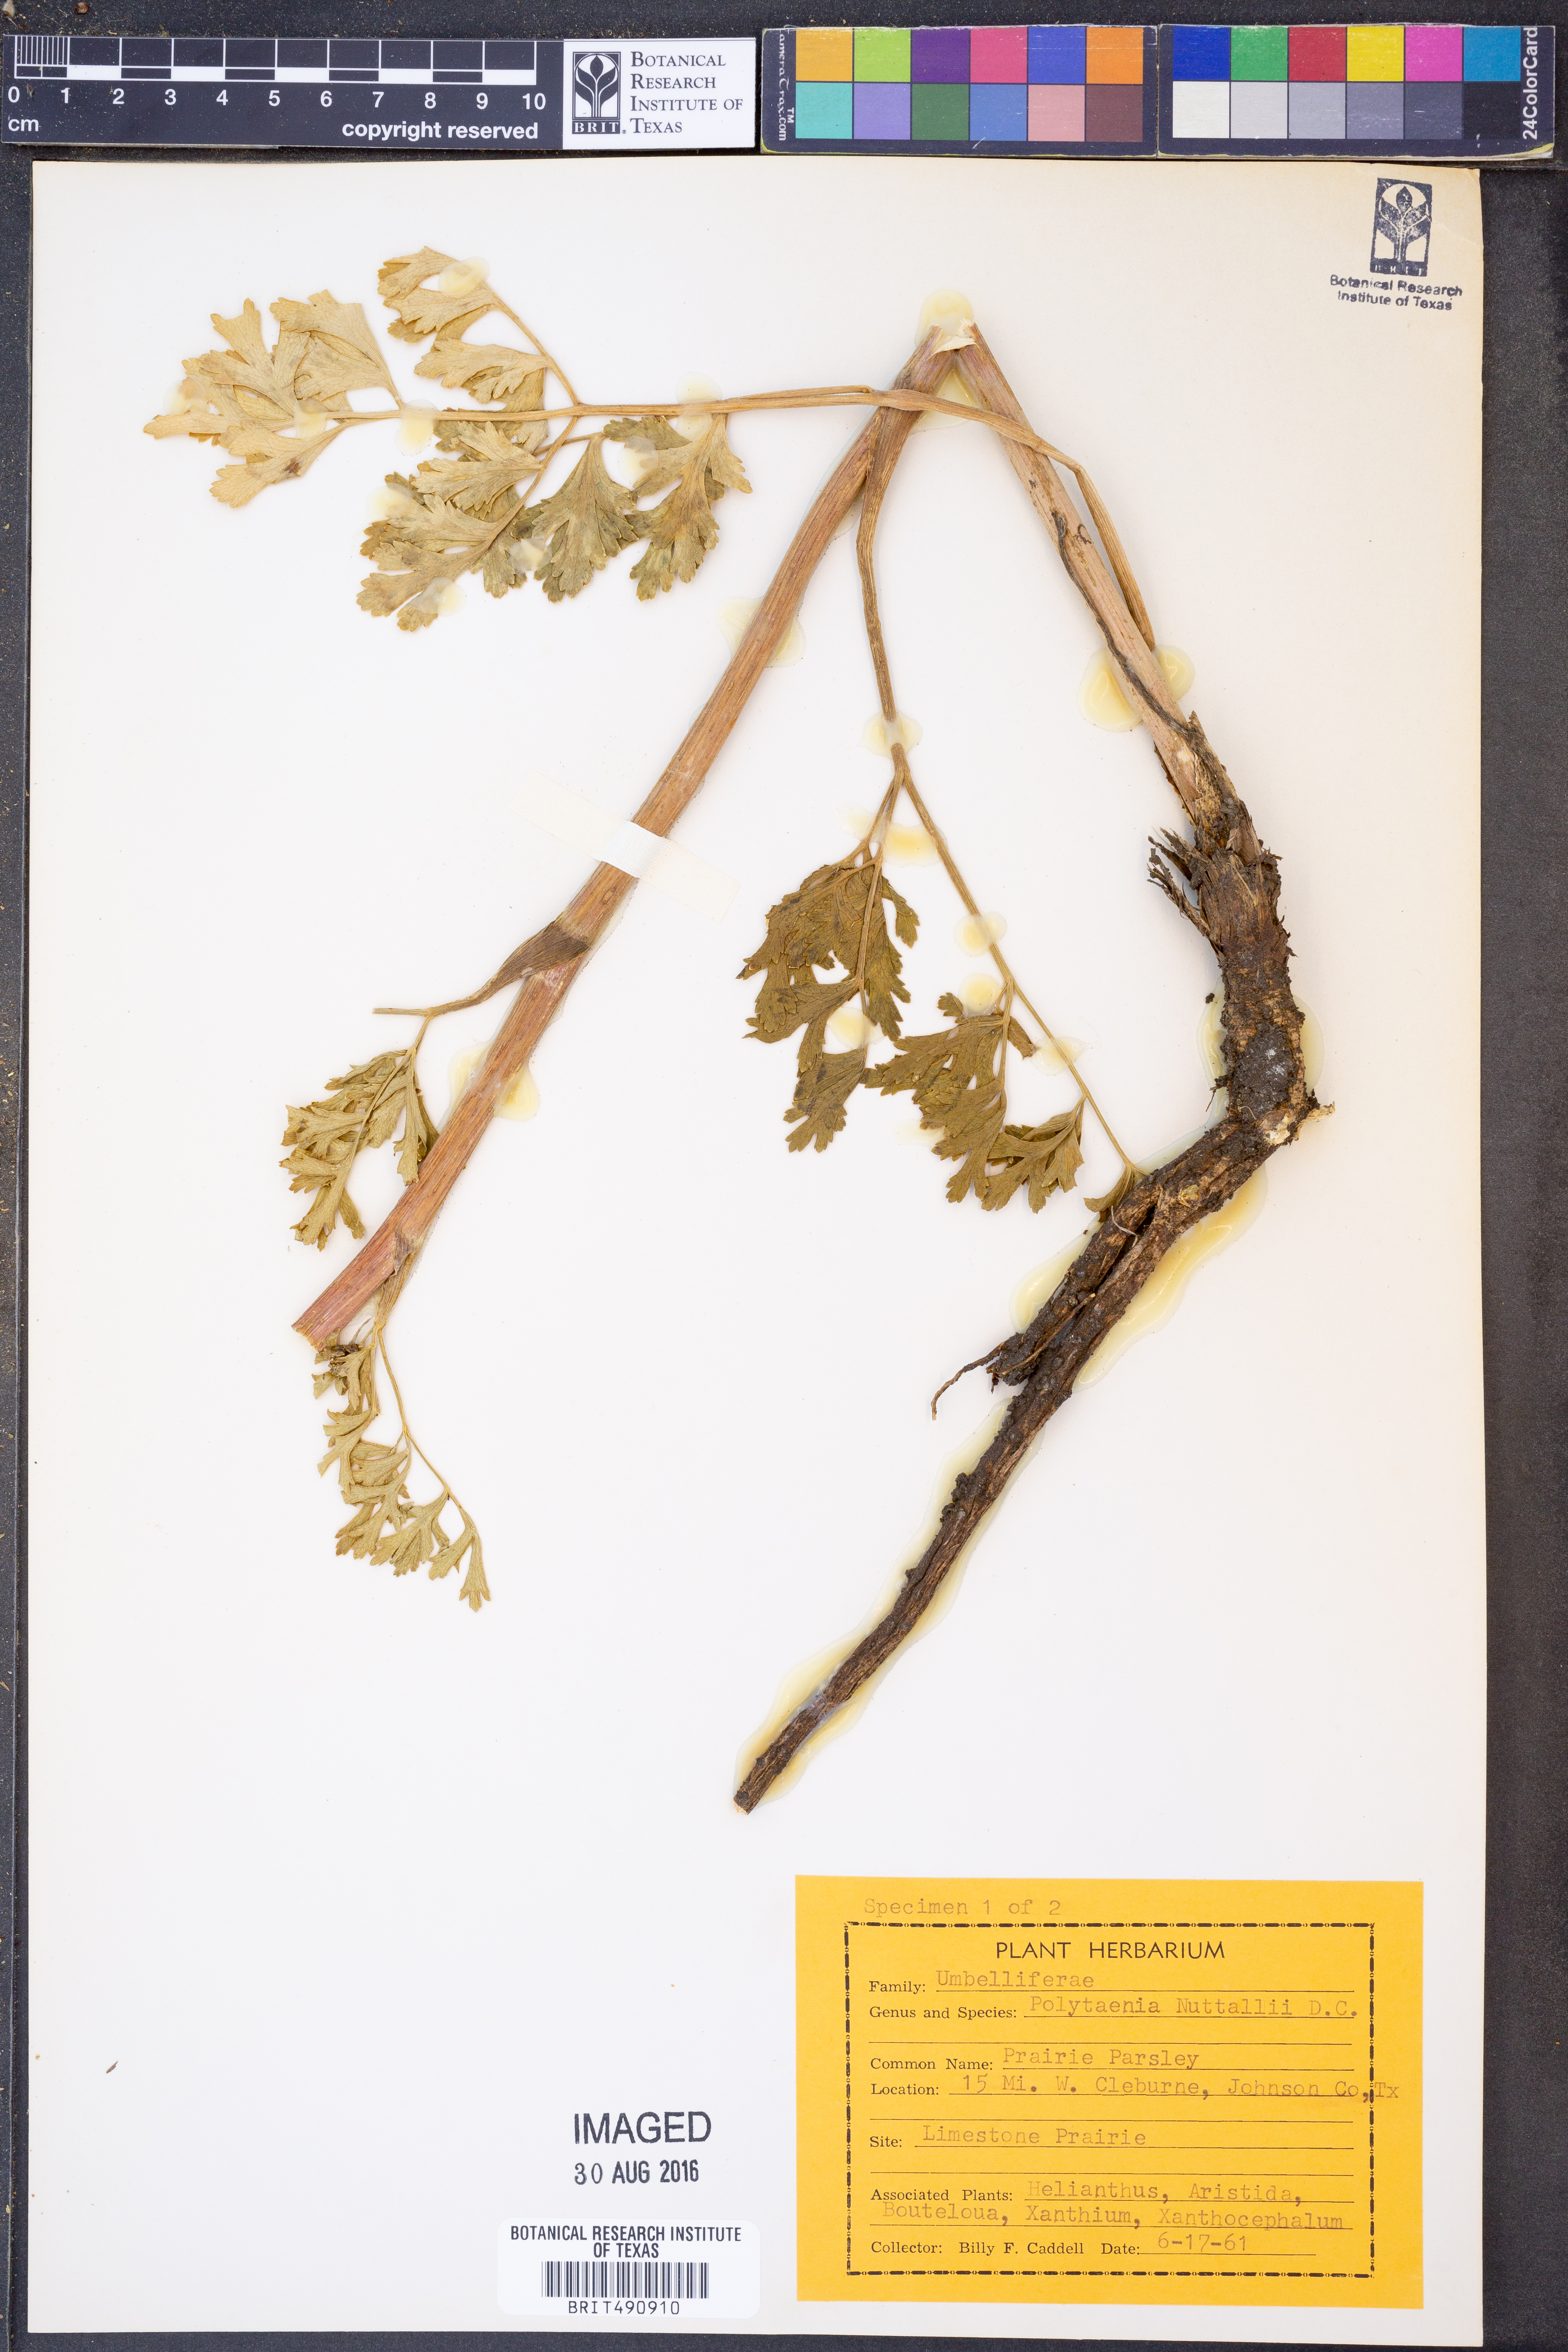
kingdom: Plantae
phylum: Tracheophyta
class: Magnoliopsida
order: Apiales
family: Apiaceae
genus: Polytaenia
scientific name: Polytaenia nuttallii
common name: Prairie-parsley
